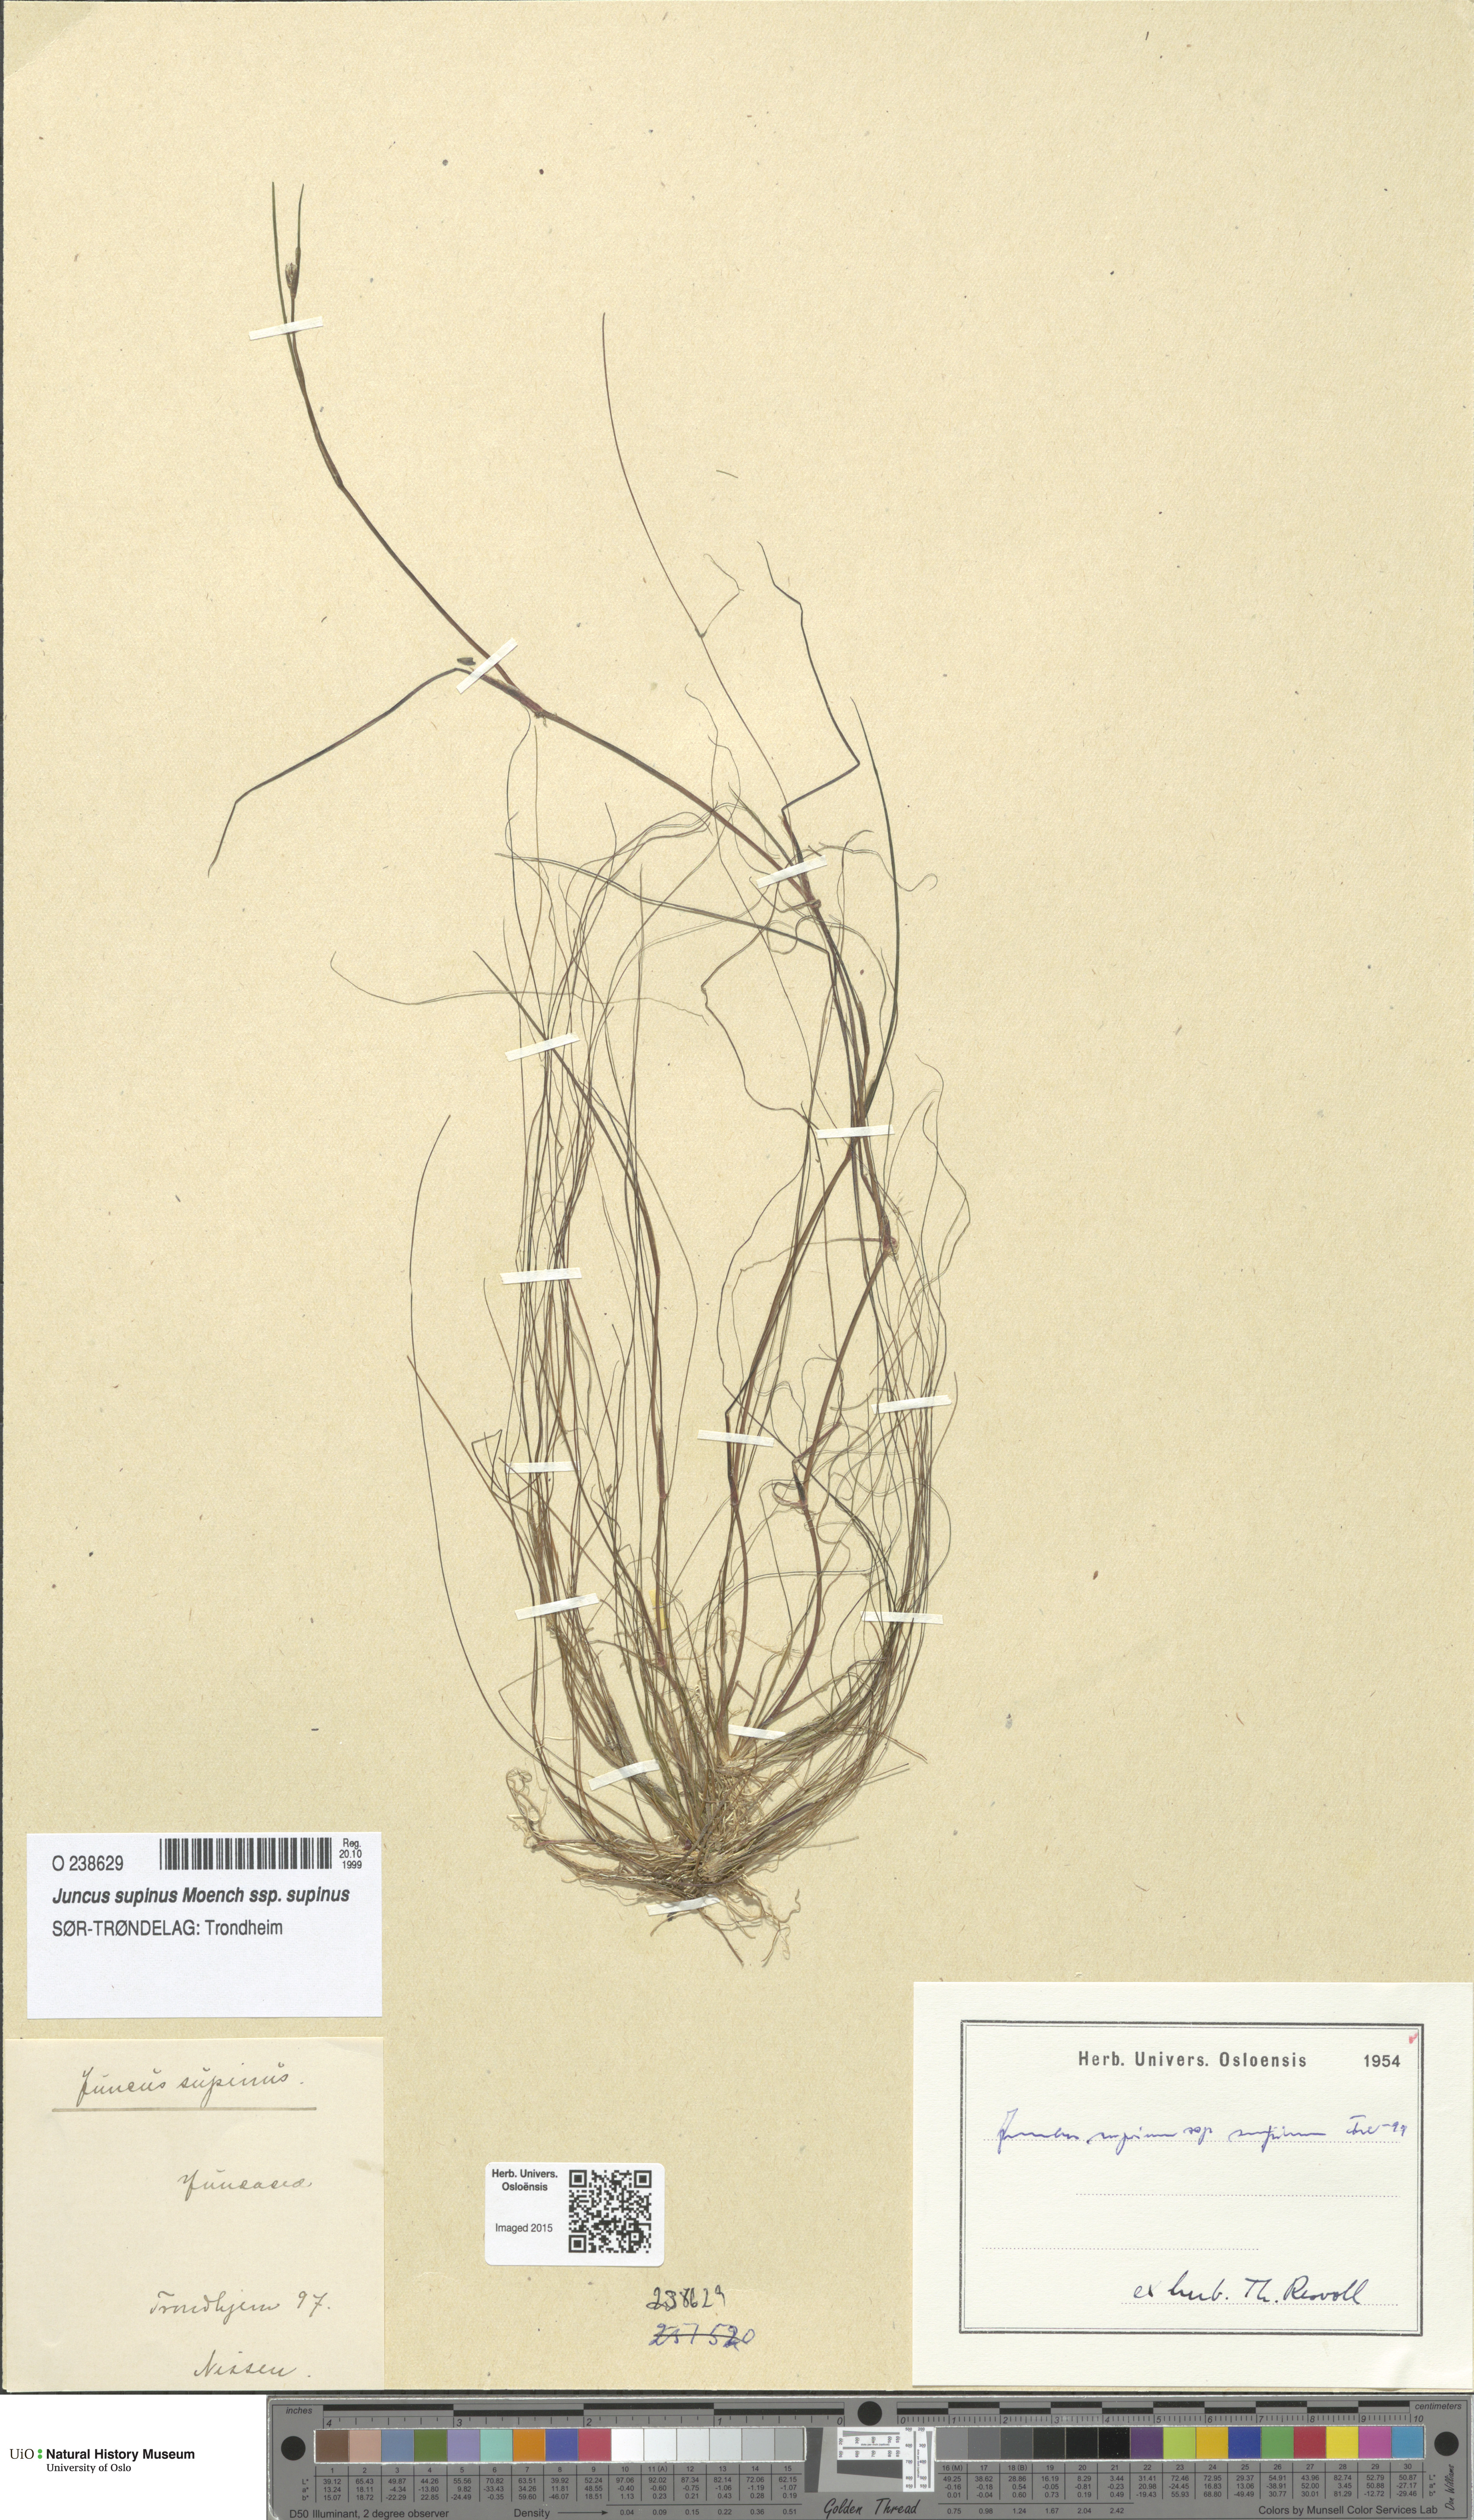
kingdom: Plantae
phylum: Tracheophyta
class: Liliopsida
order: Poales
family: Juncaceae
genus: Juncus
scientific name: Juncus bulbosus
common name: Bulbous rush
